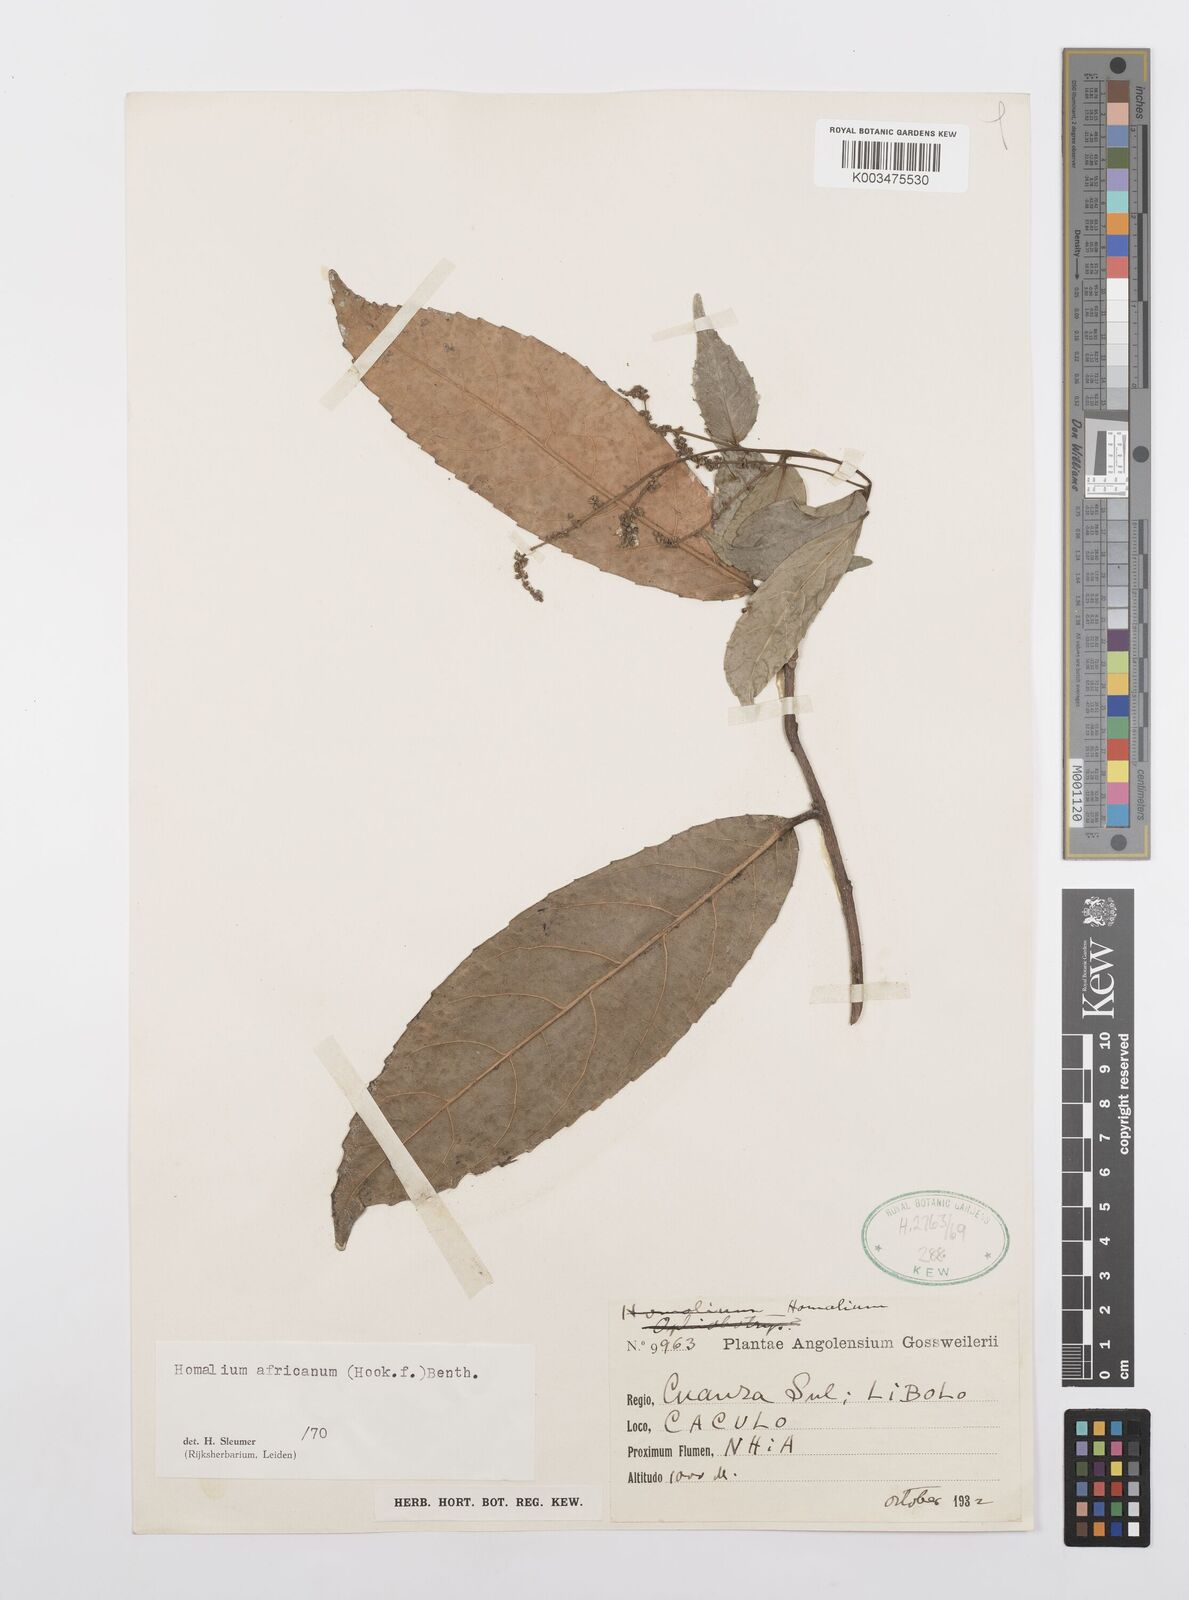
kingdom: Plantae
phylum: Tracheophyta
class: Magnoliopsida
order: Malpighiales
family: Salicaceae
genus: Homalium
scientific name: Homalium africanum
